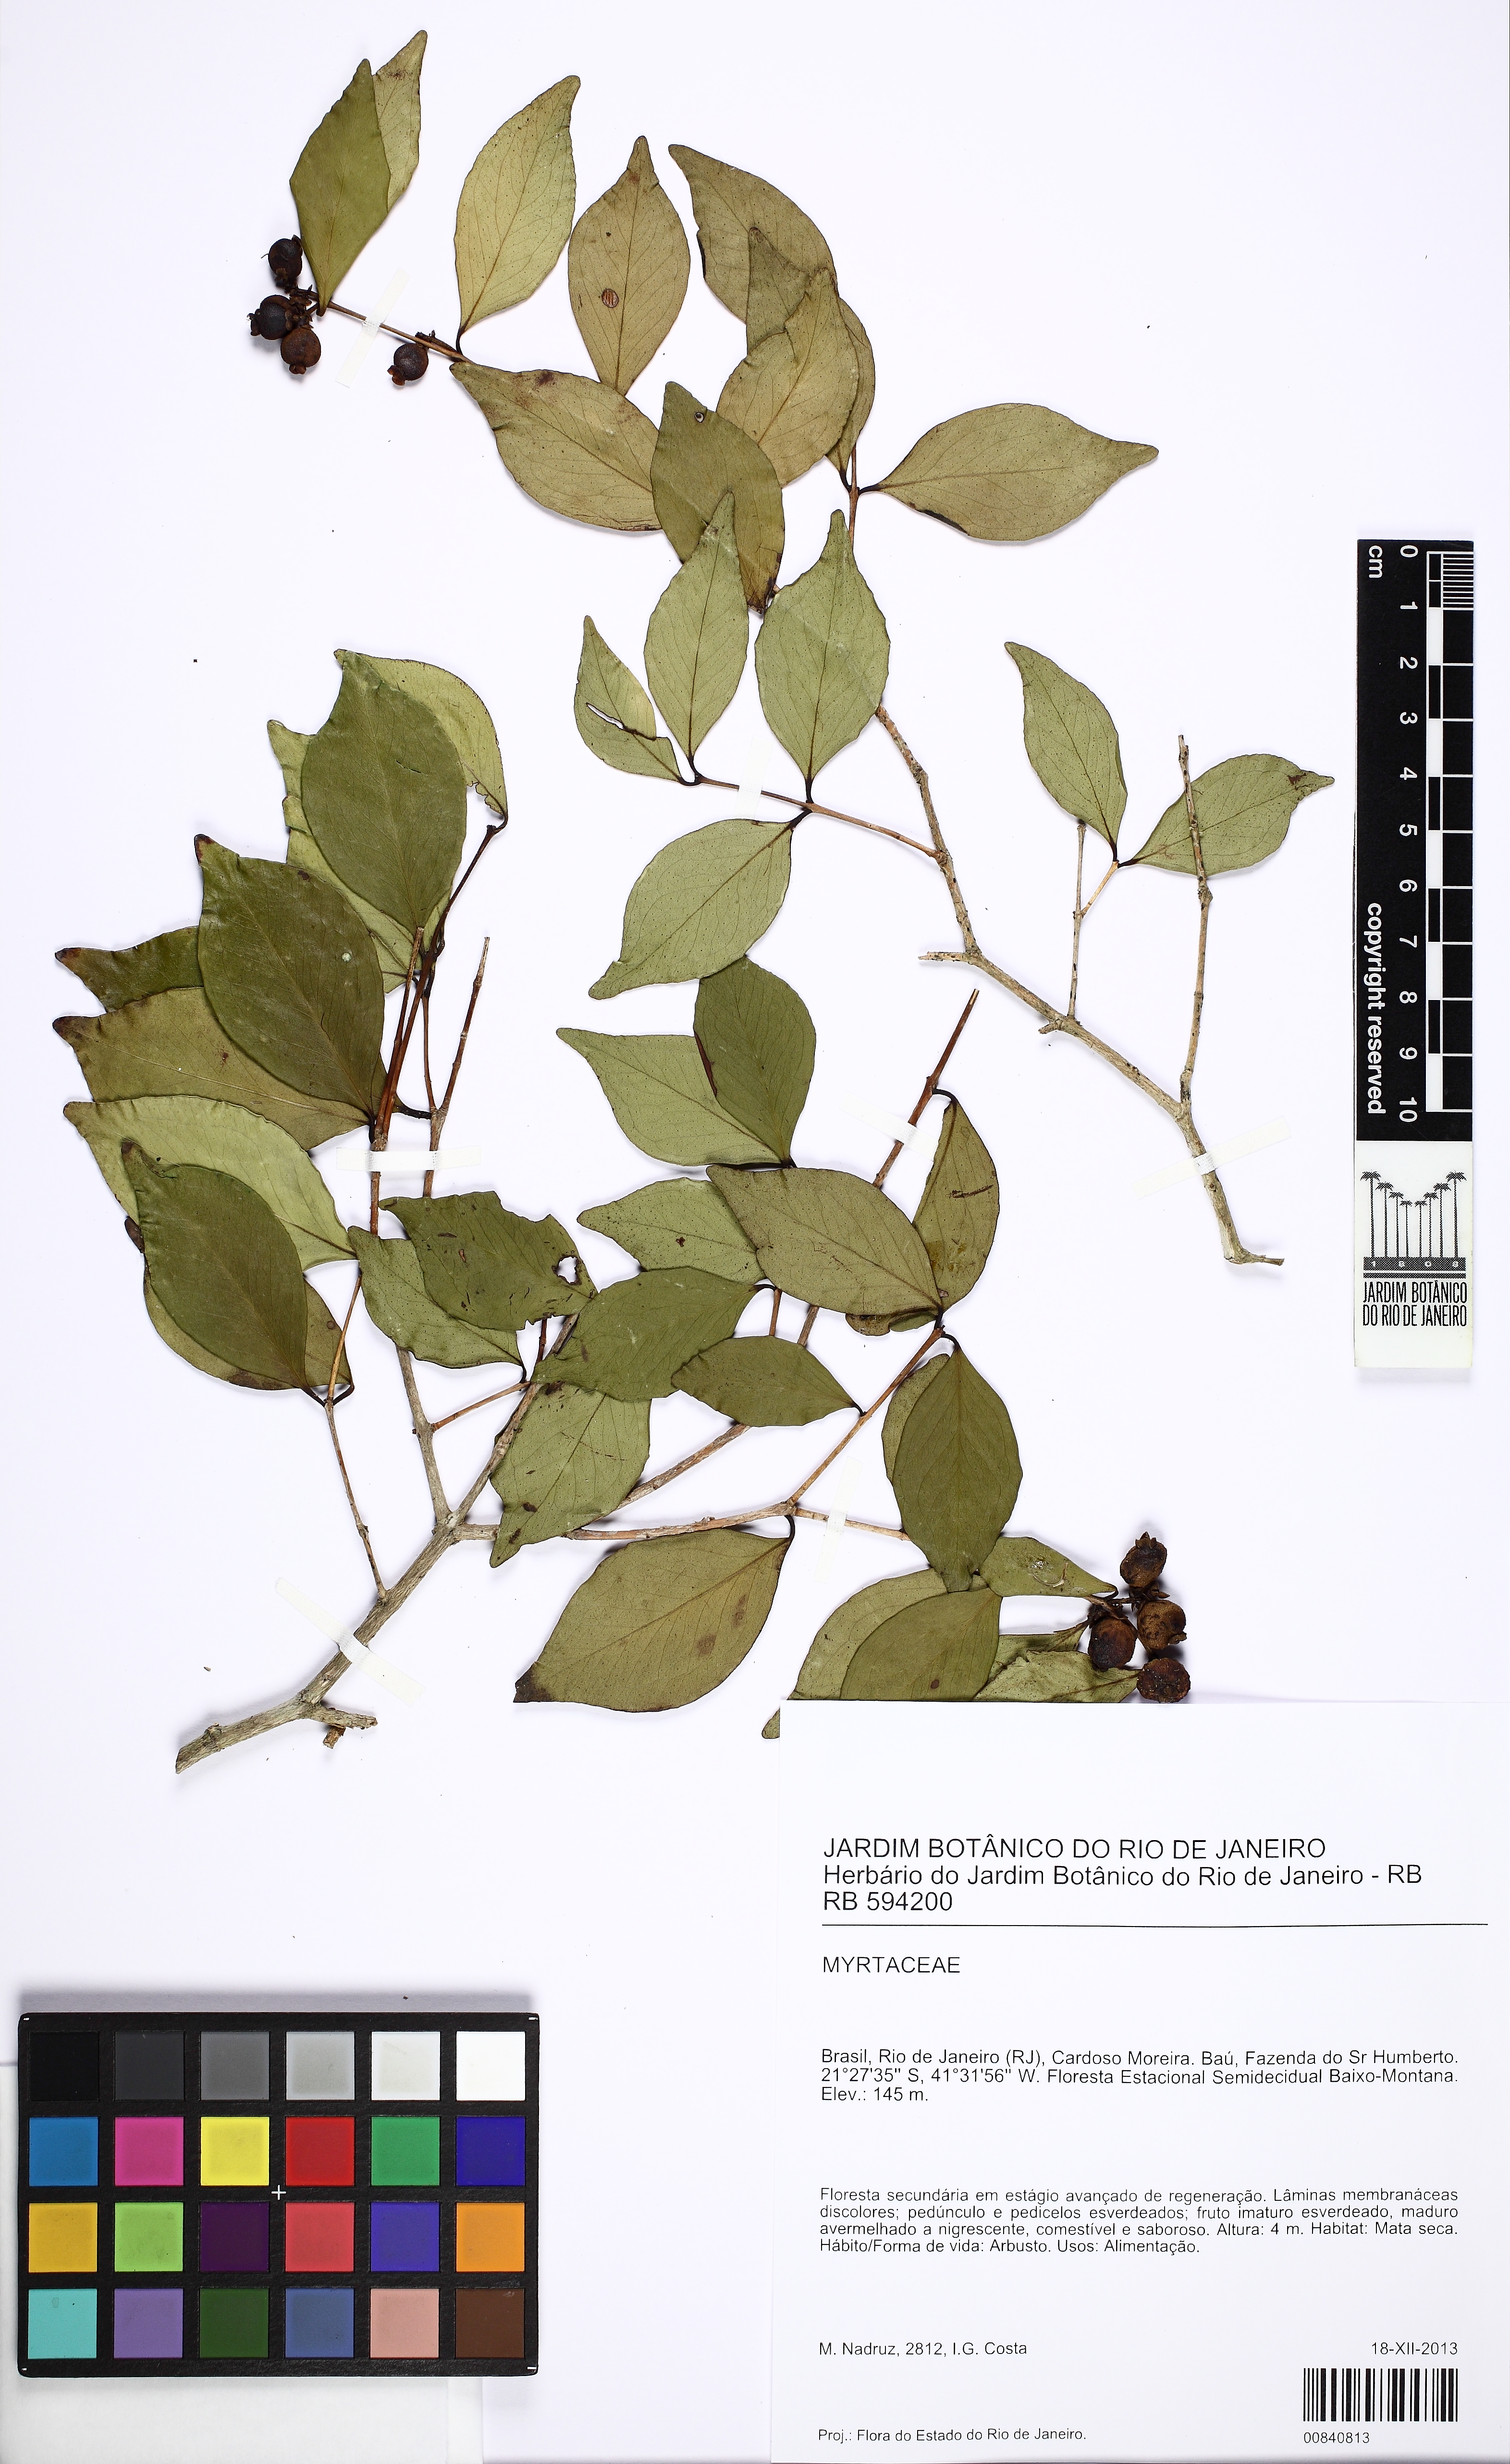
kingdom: Plantae
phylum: Tracheophyta
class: Magnoliopsida
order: Myrtales
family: Myrtaceae
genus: Myrceugenia
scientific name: Myrceugenia
